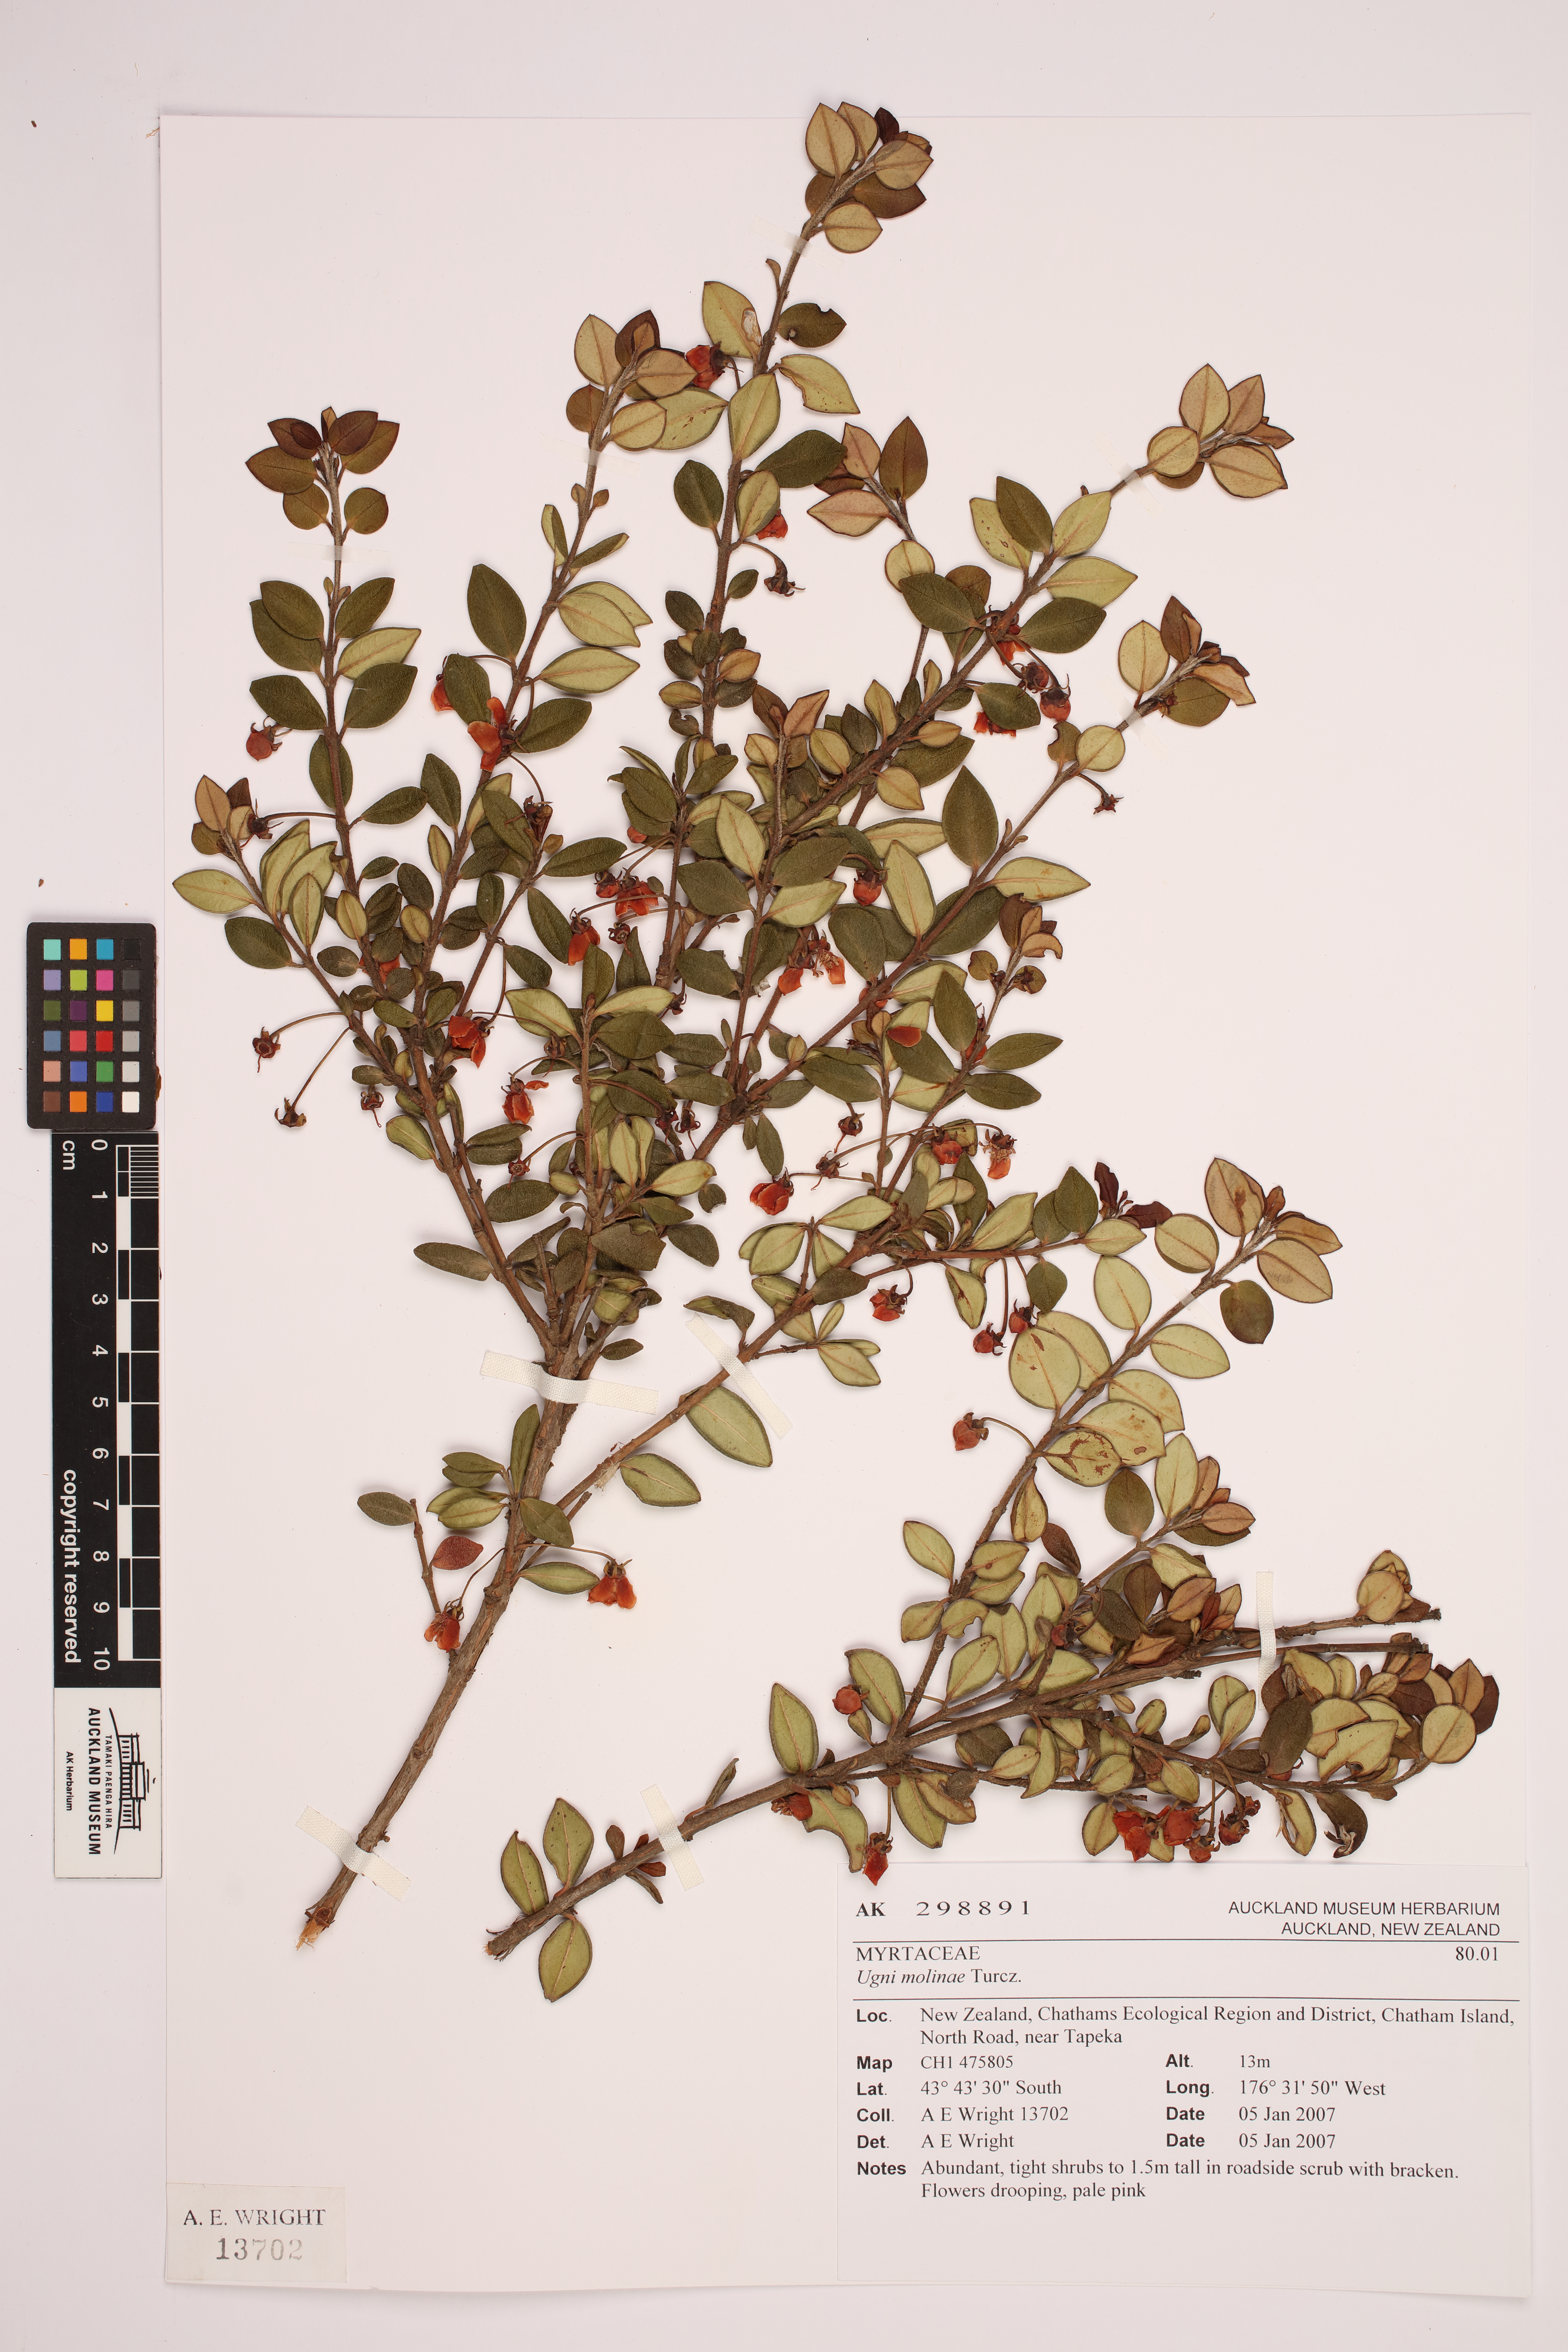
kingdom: Plantae
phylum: Tracheophyta
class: Magnoliopsida
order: Myrtales
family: Myrtaceae
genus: Ugni
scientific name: Ugni molinae
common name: Chilean-guava
